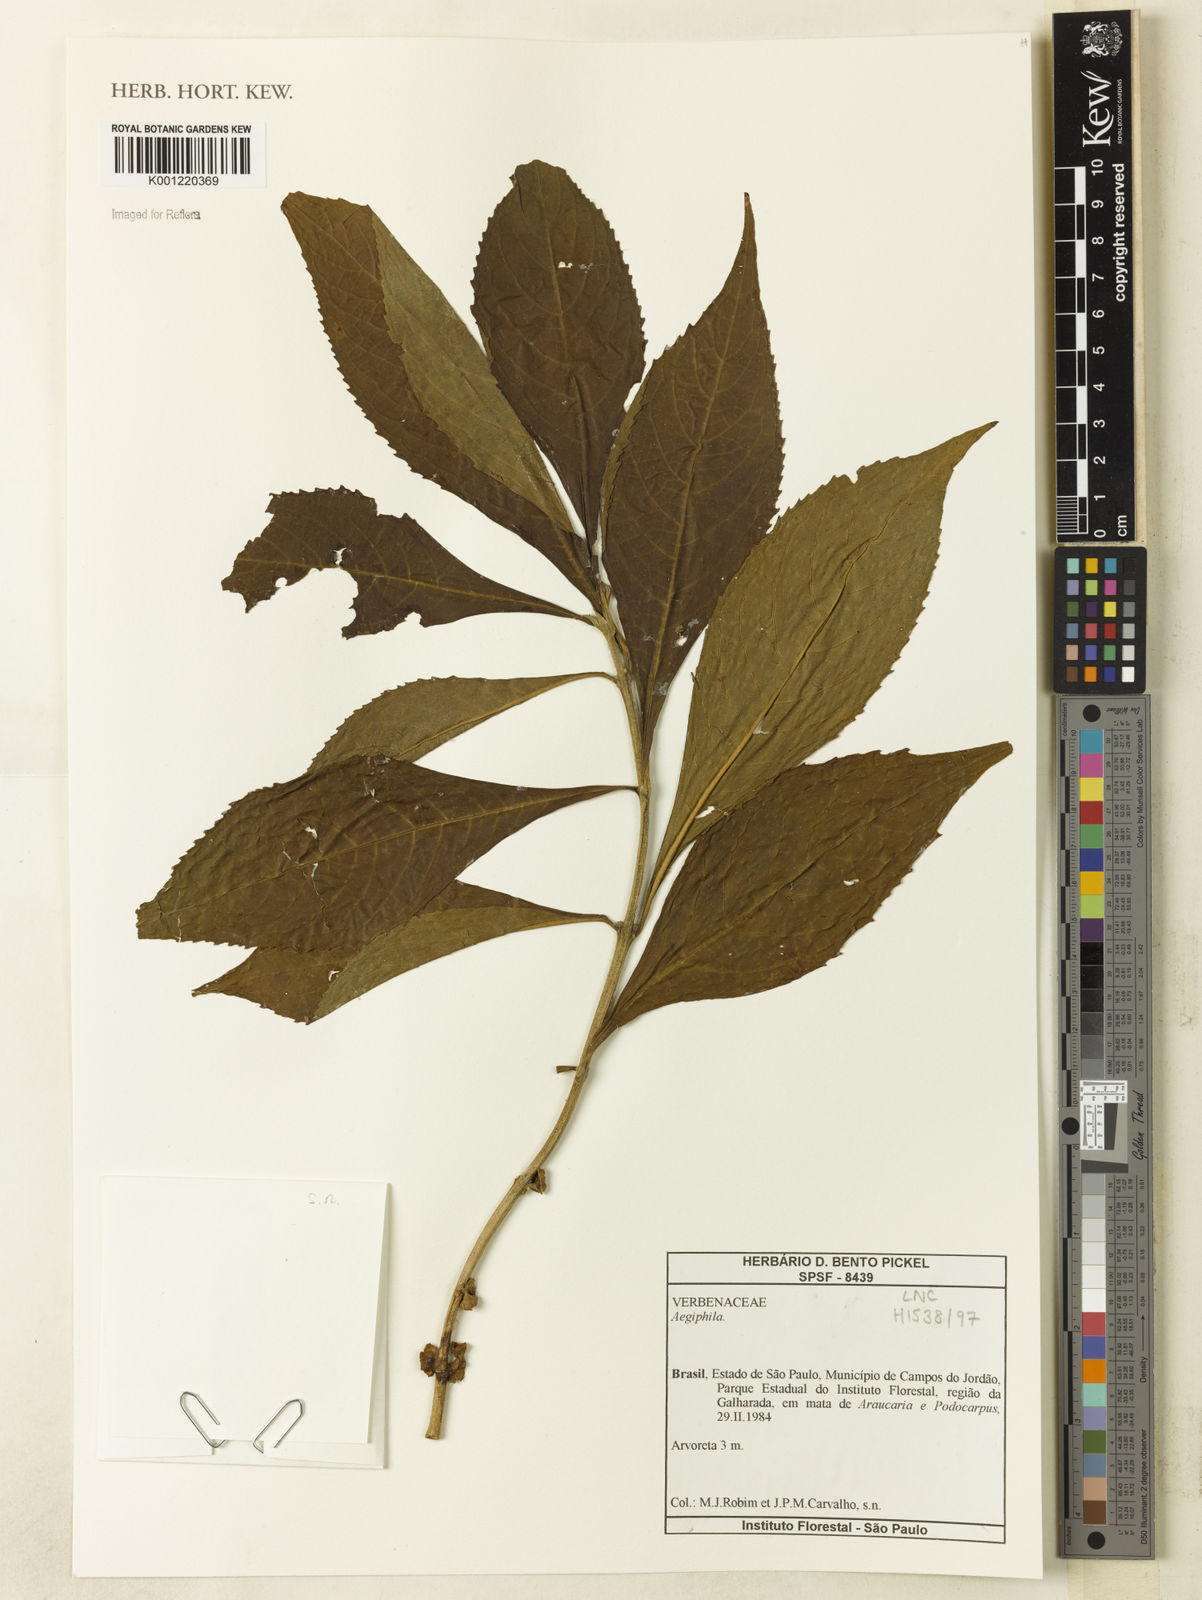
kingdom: Plantae
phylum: Tracheophyta
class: Magnoliopsida
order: Lamiales
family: Lamiaceae
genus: Aegiphila
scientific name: Aegiphila
